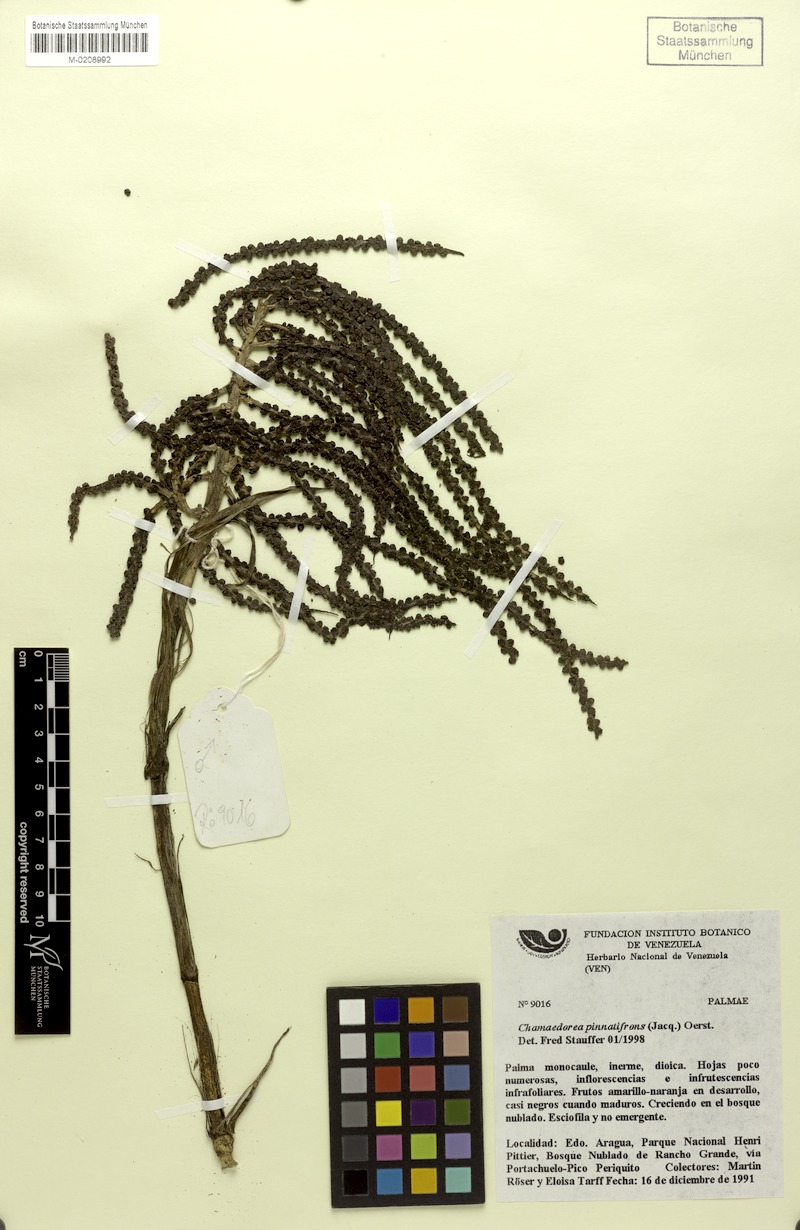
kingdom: Plantae
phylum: Tracheophyta
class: Liliopsida
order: Arecales
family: Arecaceae
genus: Chamaedorea
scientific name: Chamaedorea pinnatifrons
